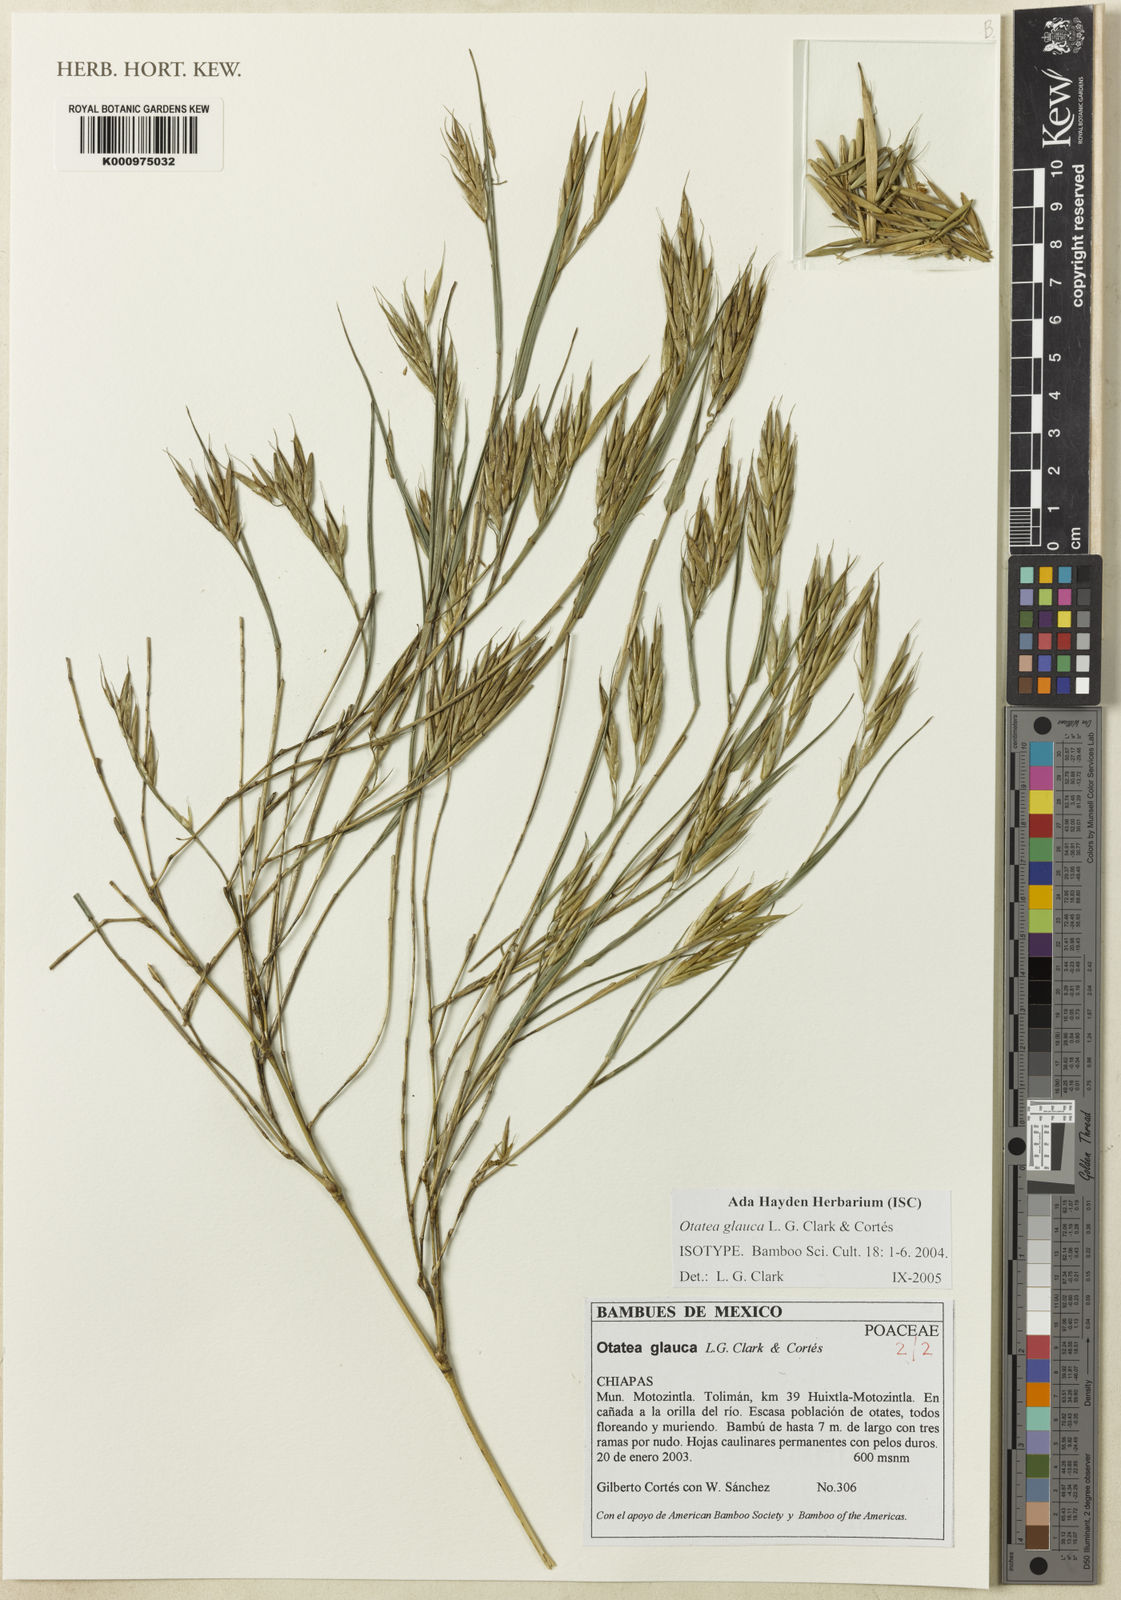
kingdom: Plantae
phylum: Tracheophyta
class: Liliopsida
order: Poales
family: Poaceae
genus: Otatea
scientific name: Otatea
